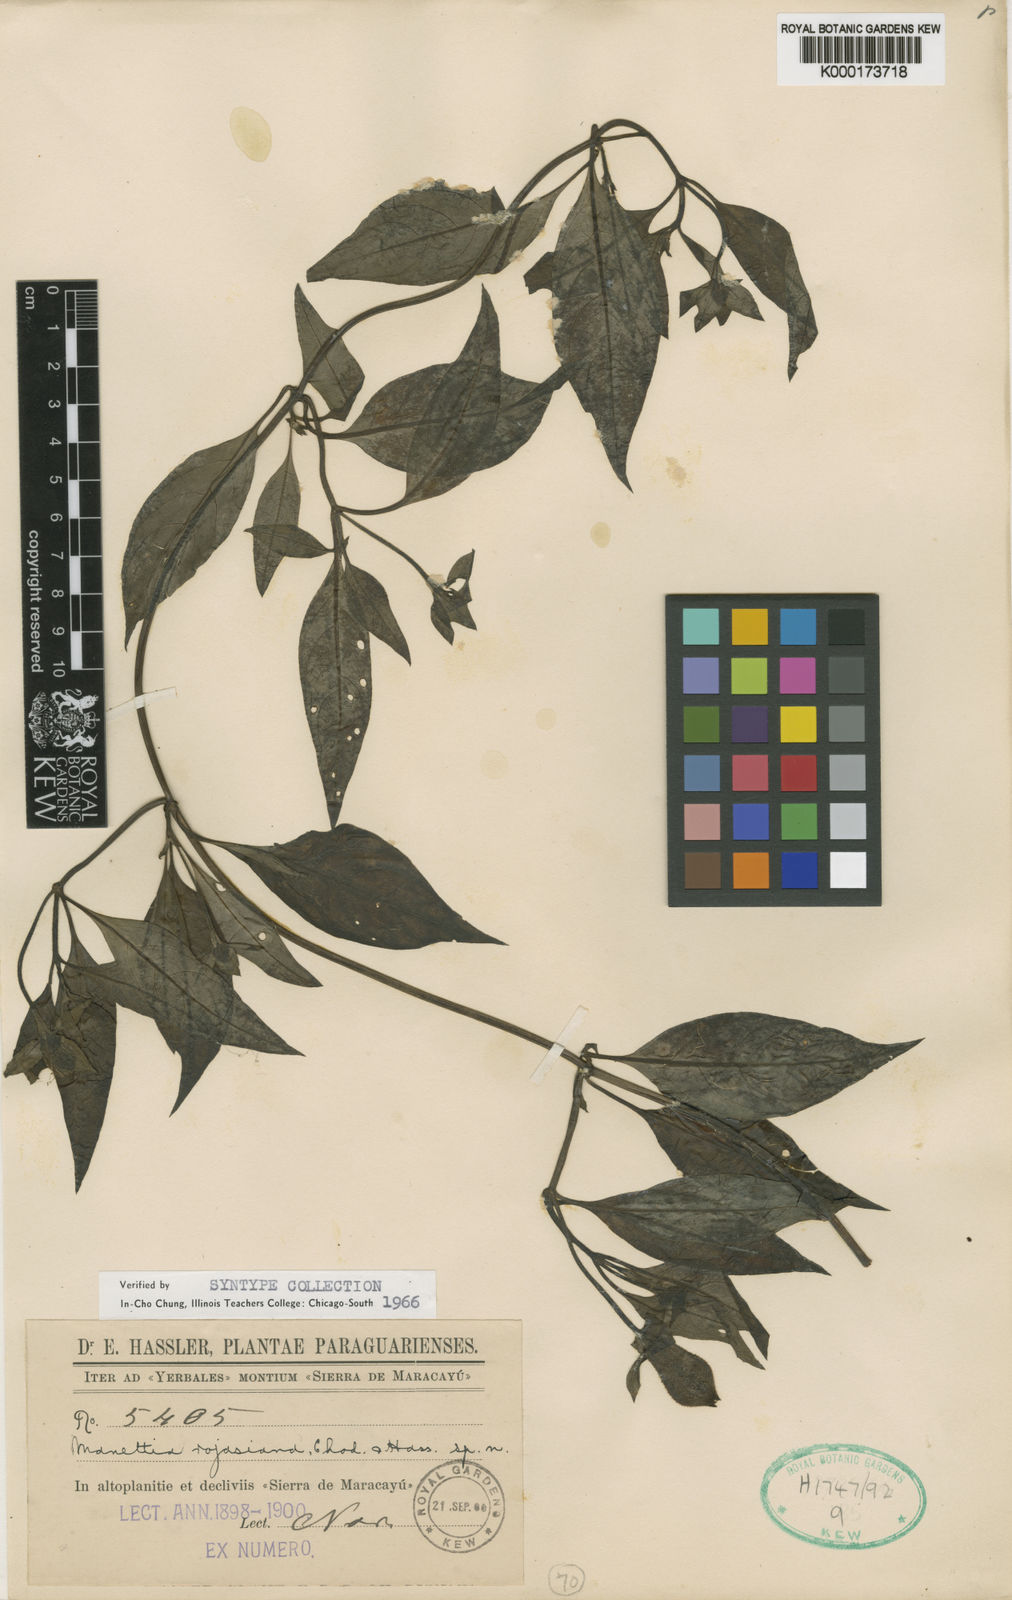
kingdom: Plantae
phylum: Tracheophyta
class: Magnoliopsida
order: Gentianales
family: Rubiaceae
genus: Manettia
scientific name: Manettia rojasiana
